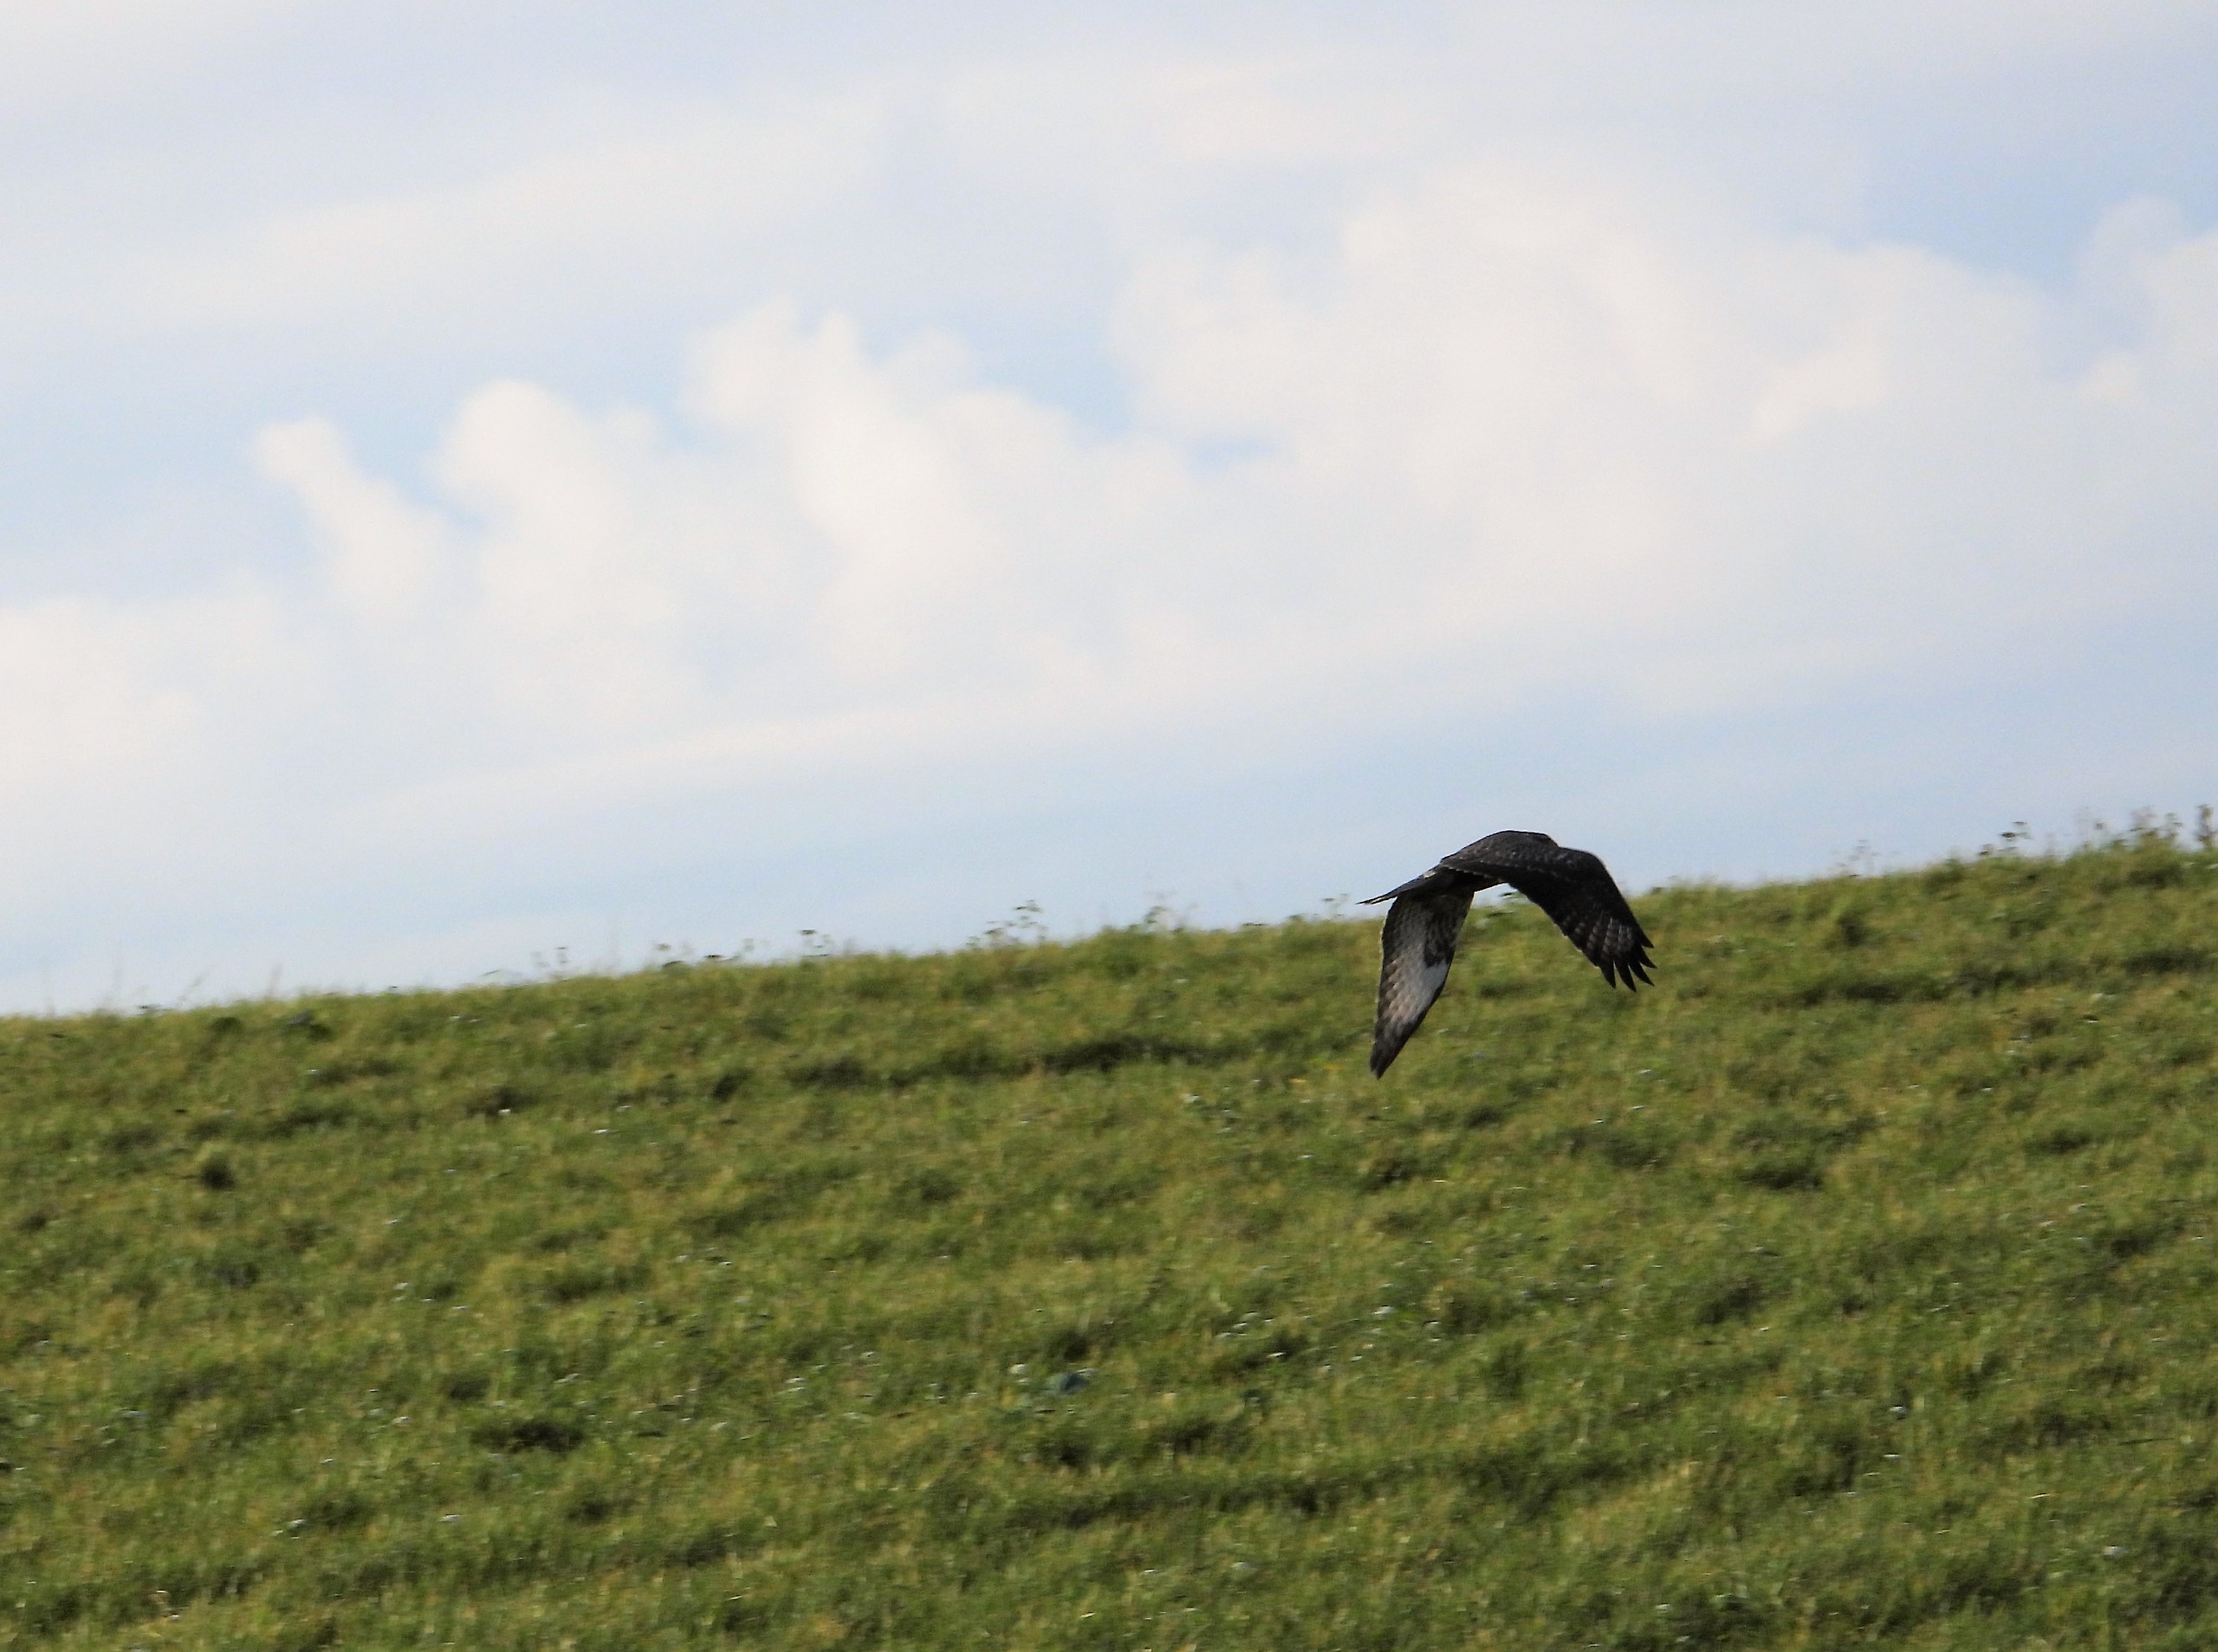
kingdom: Animalia
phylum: Chordata
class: Aves
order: Accipitriformes
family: Accipitridae
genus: Buteo
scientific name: Buteo buteo
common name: Musvåge
